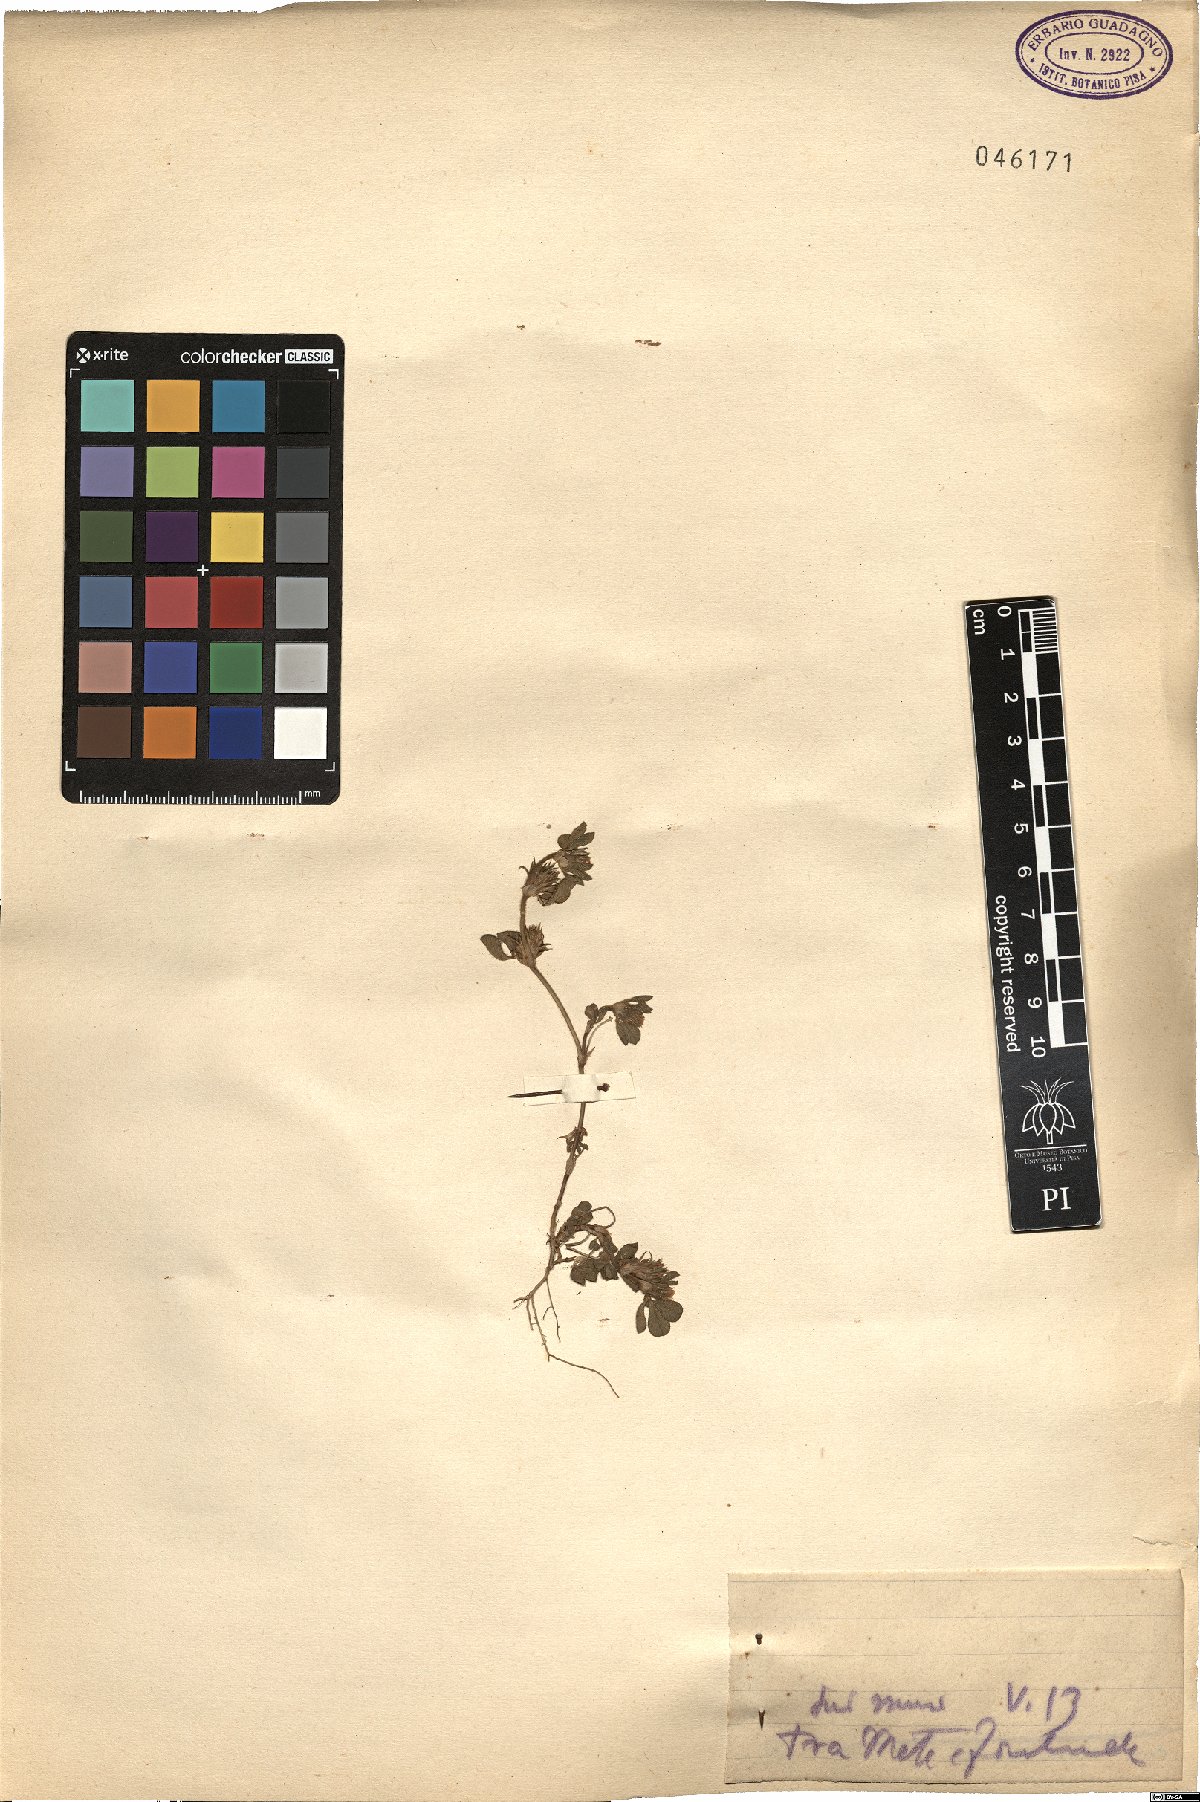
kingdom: Plantae
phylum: Tracheophyta
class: Magnoliopsida
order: Fabales
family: Fabaceae
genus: Trifolium
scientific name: Trifolium
